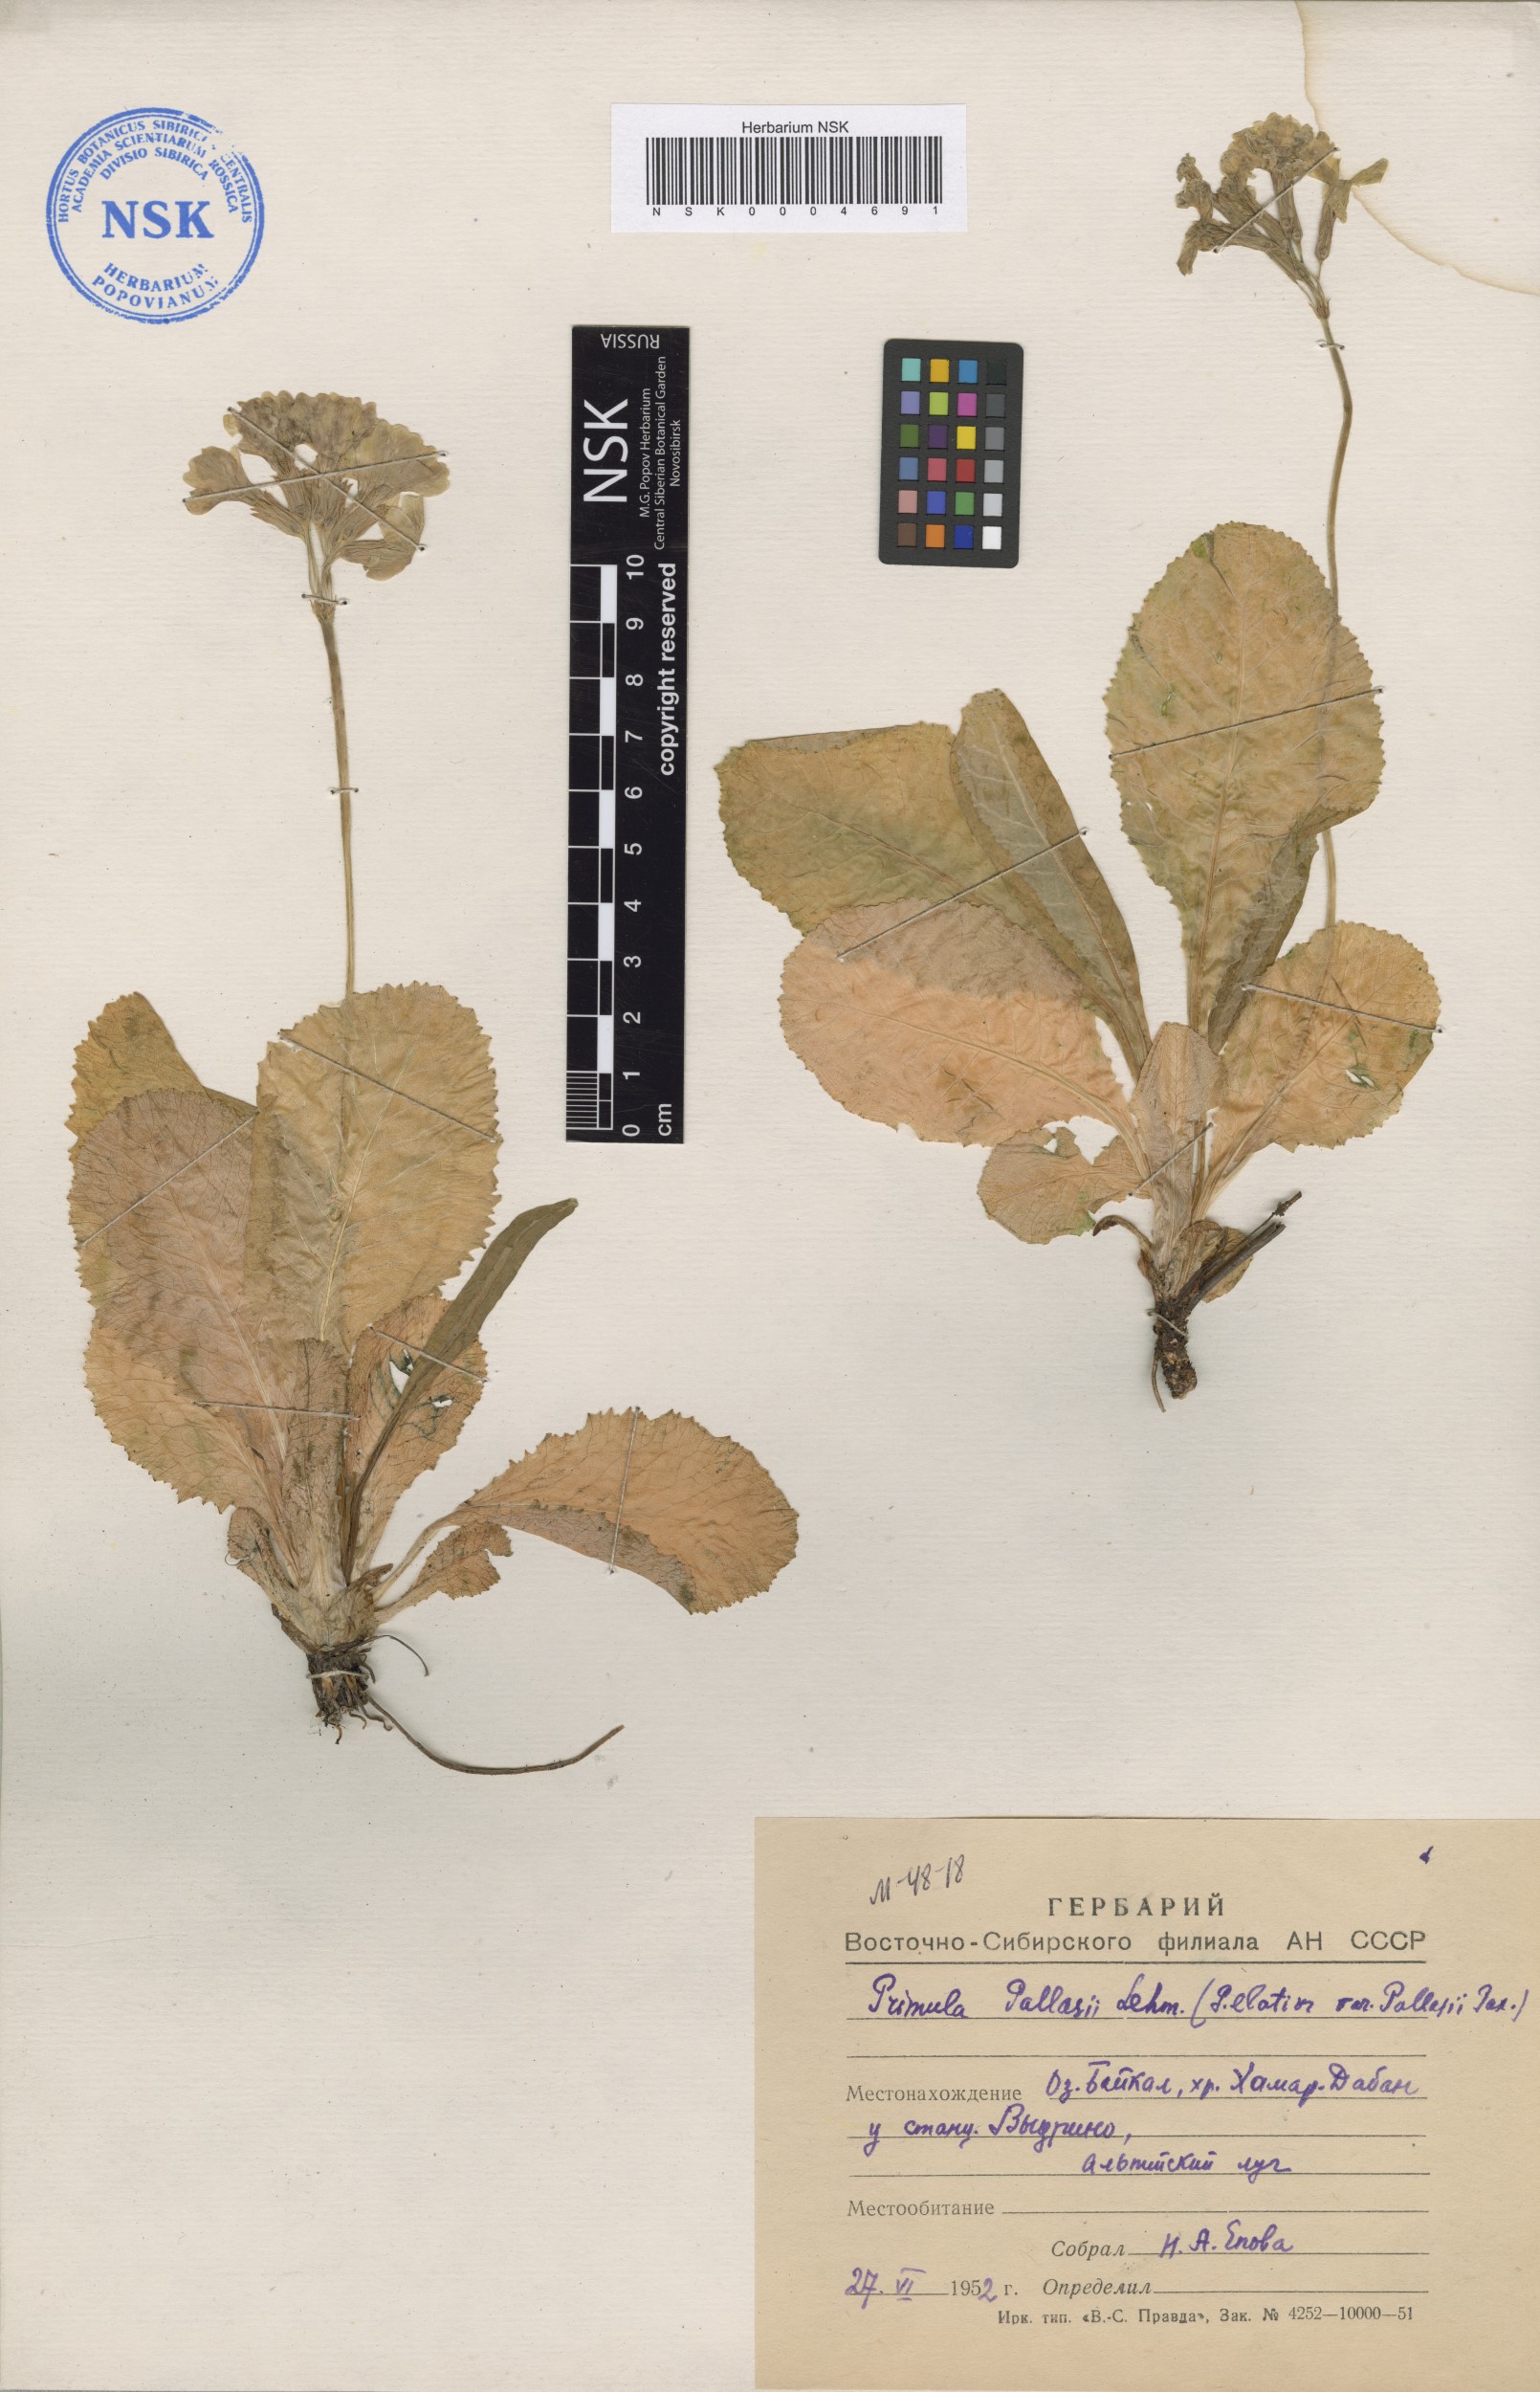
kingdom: Plantae
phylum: Tracheophyta
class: Magnoliopsida
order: Ericales
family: Primulaceae
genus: Primula
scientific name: Primula elatior
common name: Oxlip
